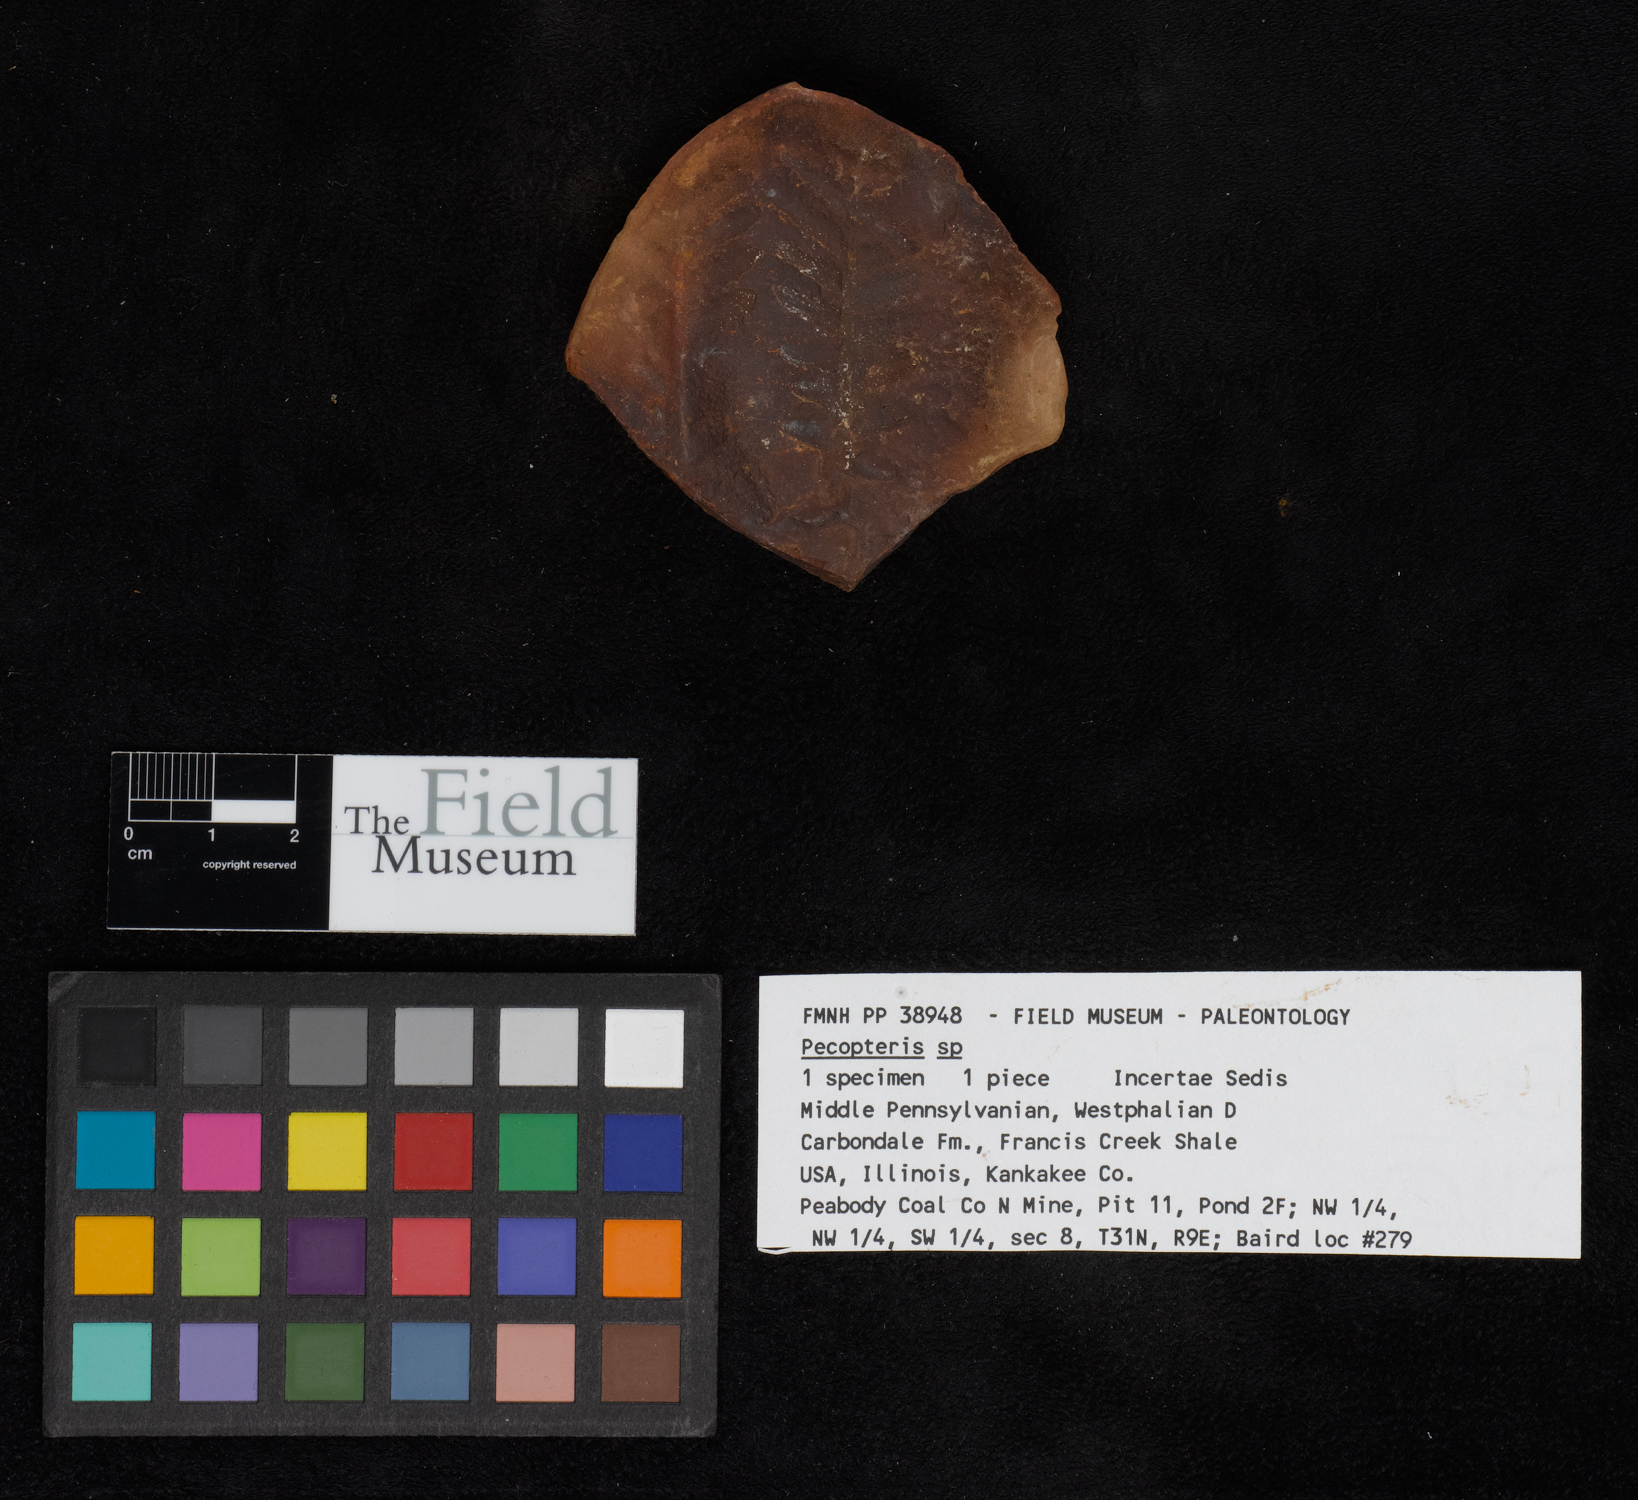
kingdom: Plantae
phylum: Tracheophyta
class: Polypodiopsida
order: Marattiales
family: Asterothecaceae
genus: Pecopteris
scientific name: Pecopteris
